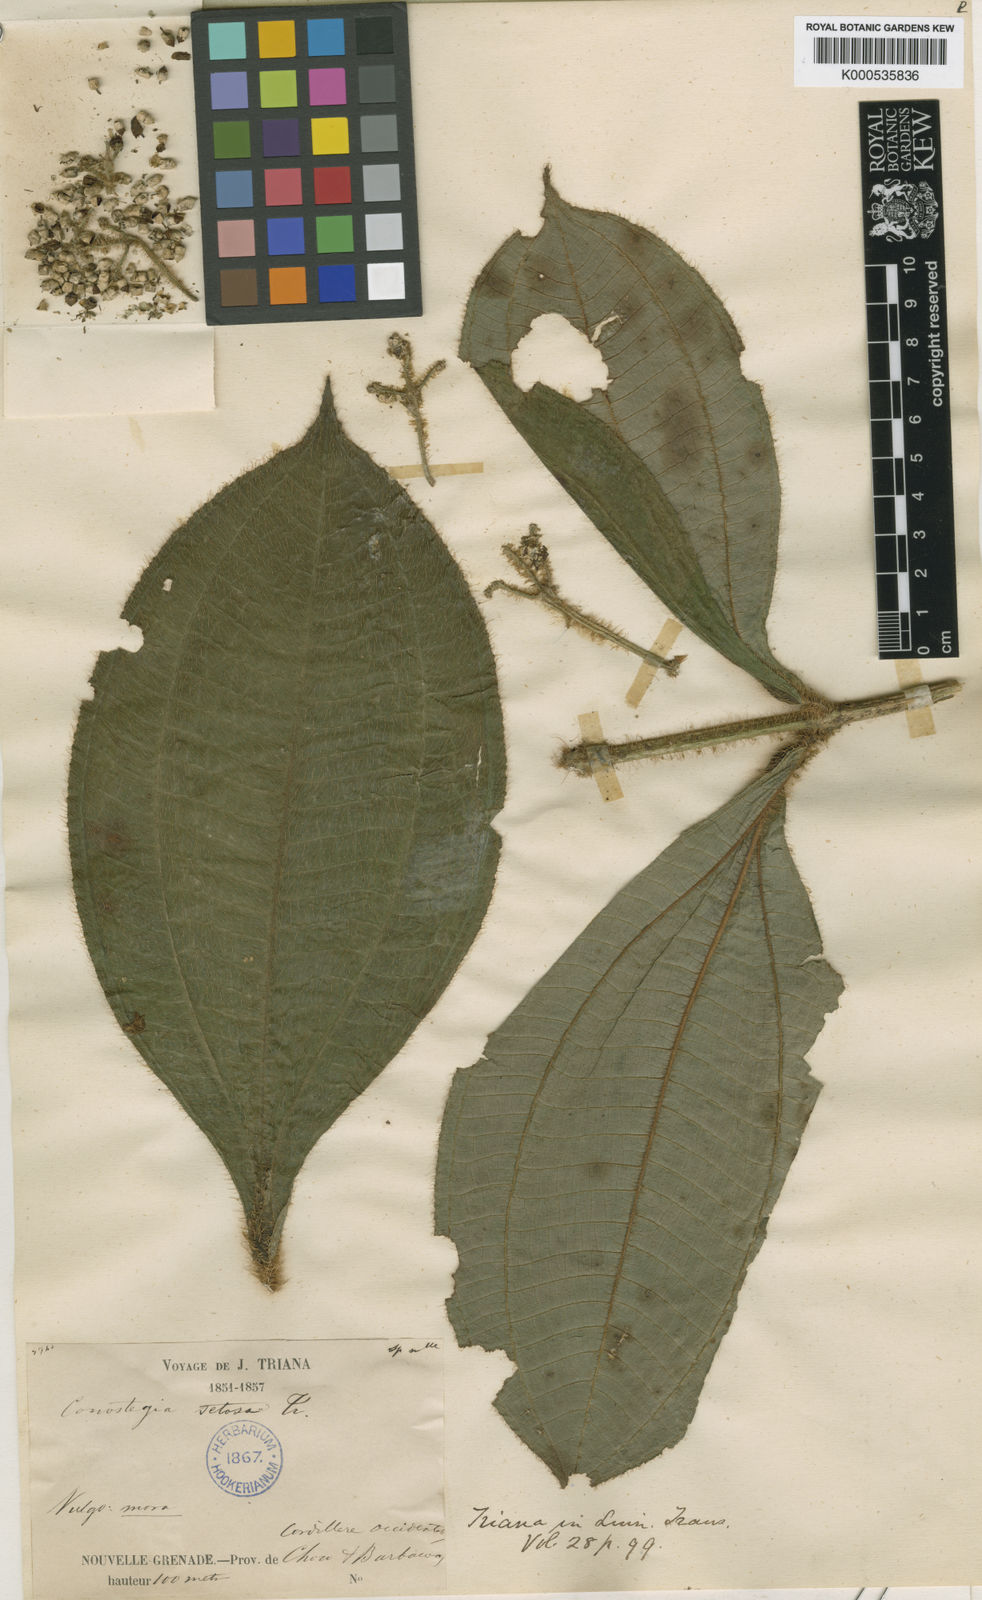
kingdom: Plantae
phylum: Tracheophyta
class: Magnoliopsida
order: Myrtales
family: Melastomataceae
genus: Miconia
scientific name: Miconia conosetosa
